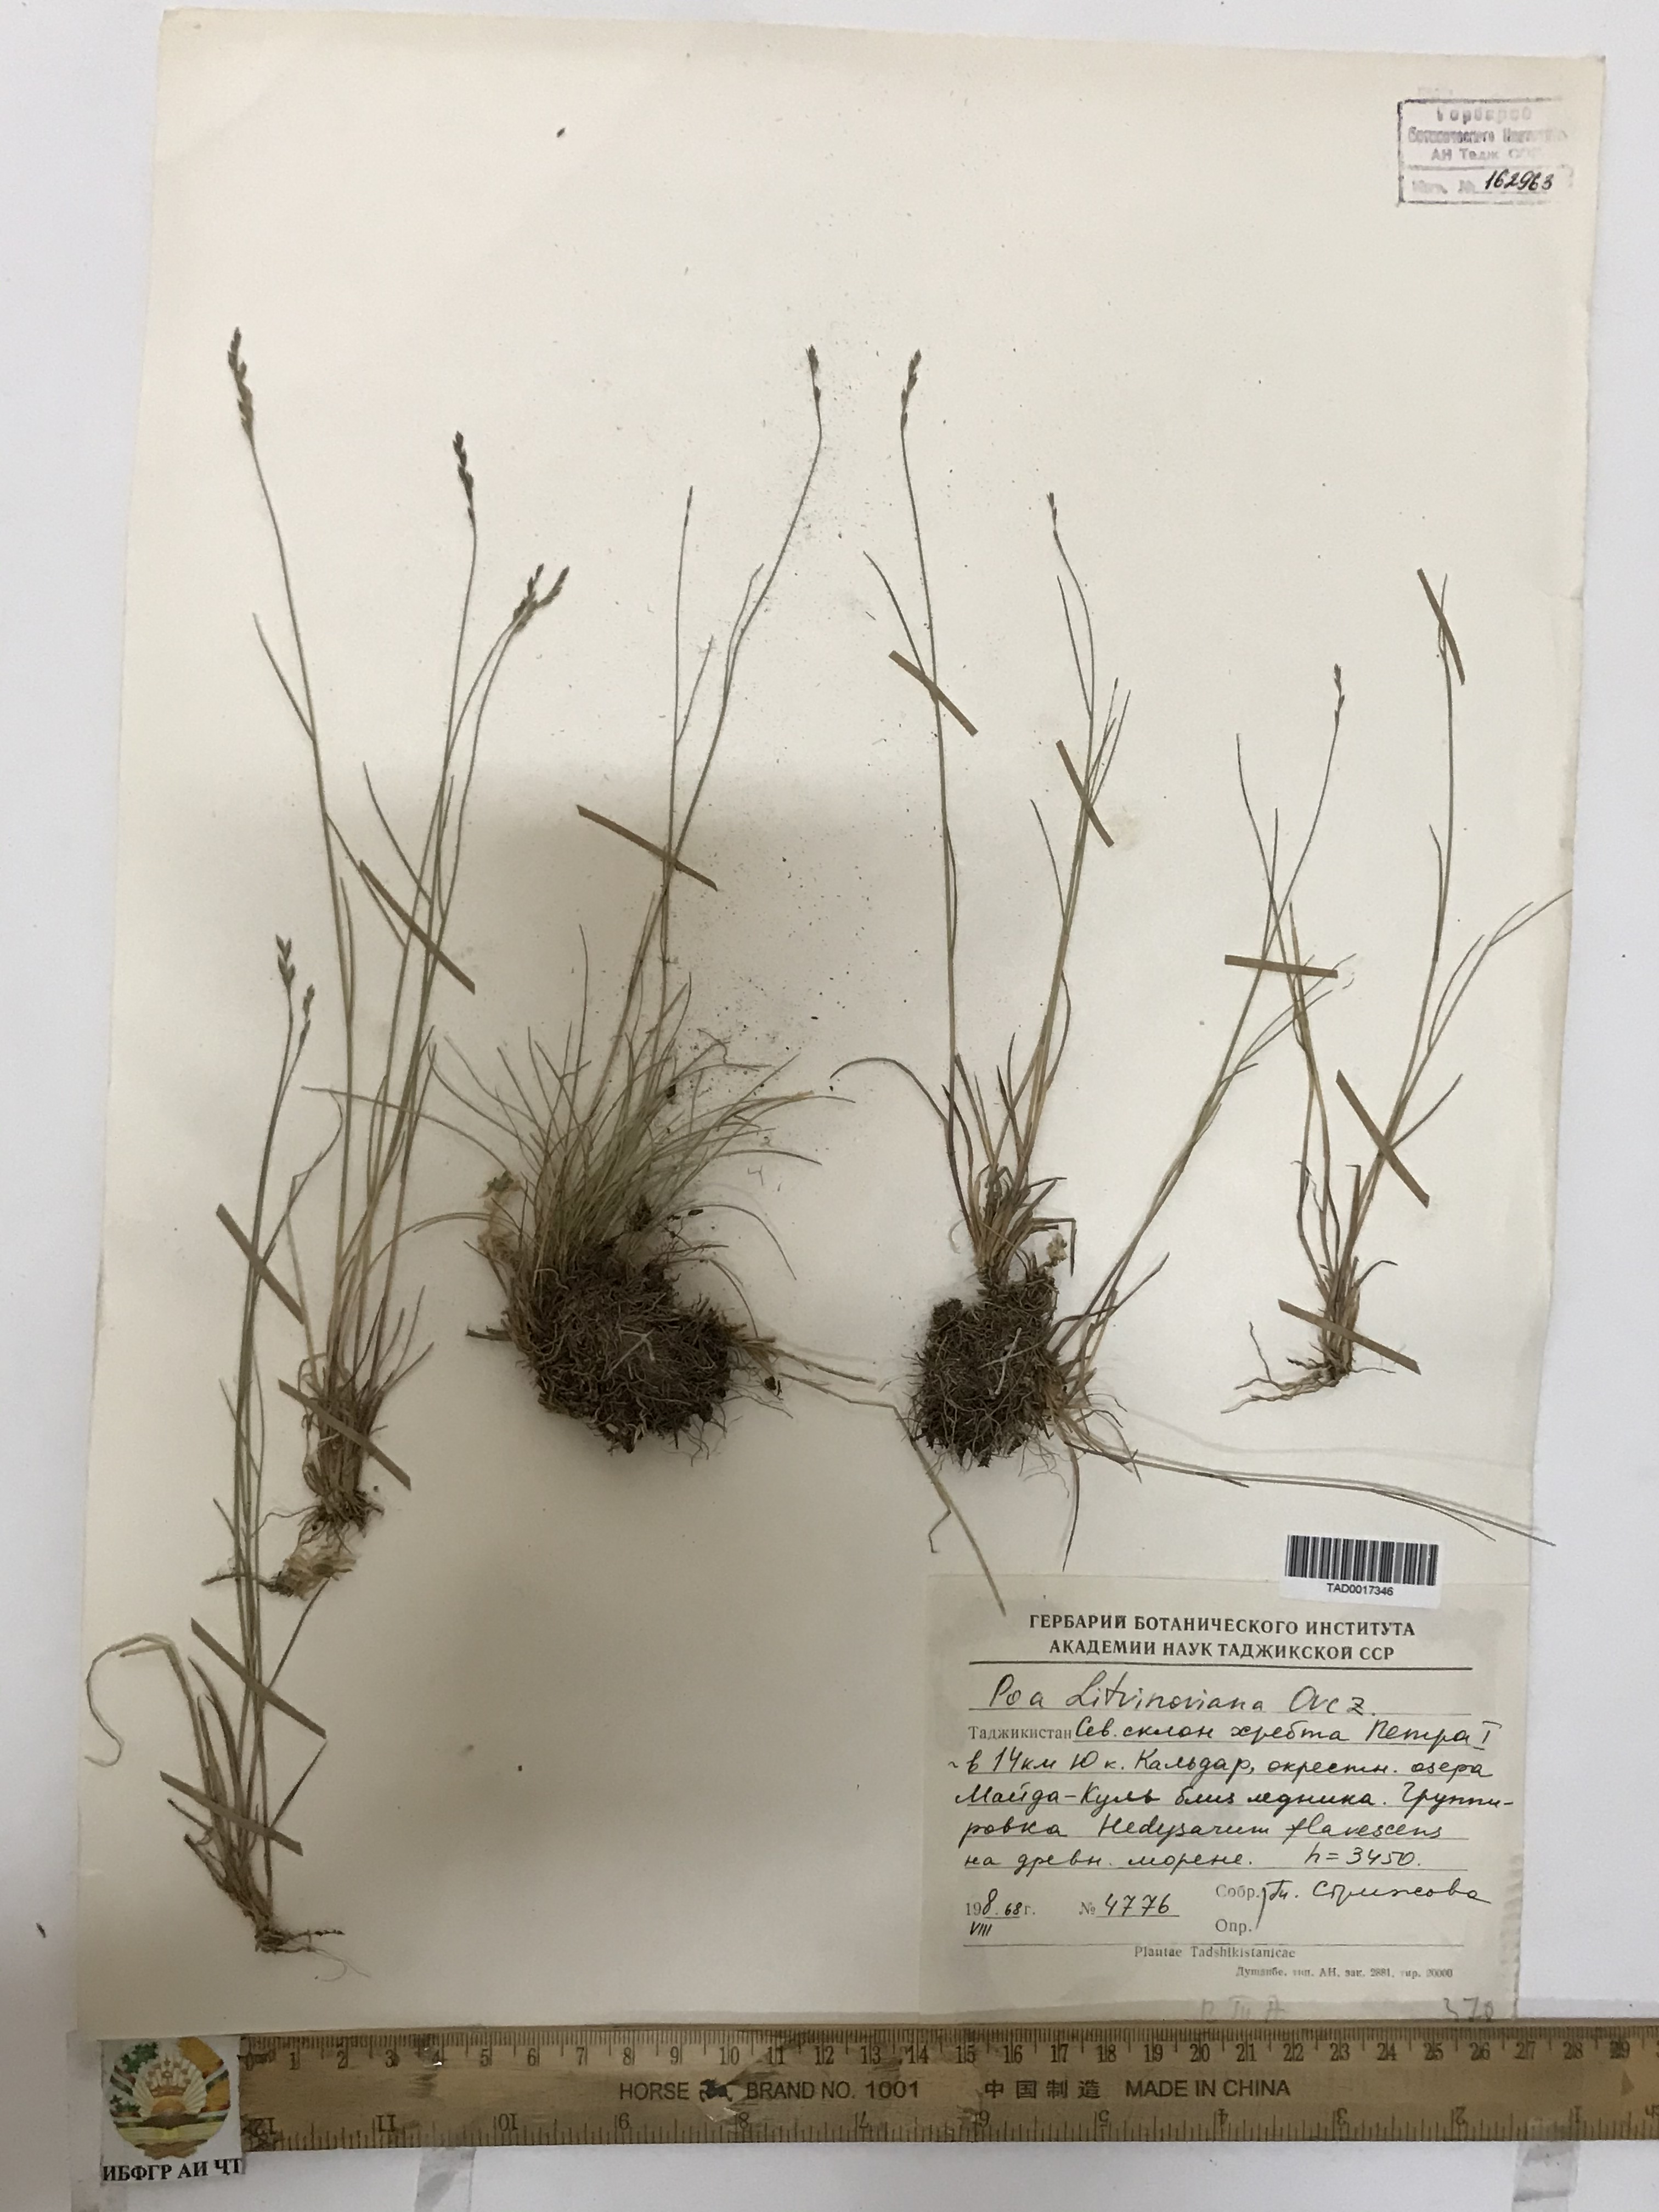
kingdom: Plantae
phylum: Tracheophyta
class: Liliopsida
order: Poales
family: Poaceae
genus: Poa
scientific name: Poa glauca
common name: Glaucous bluegrass
